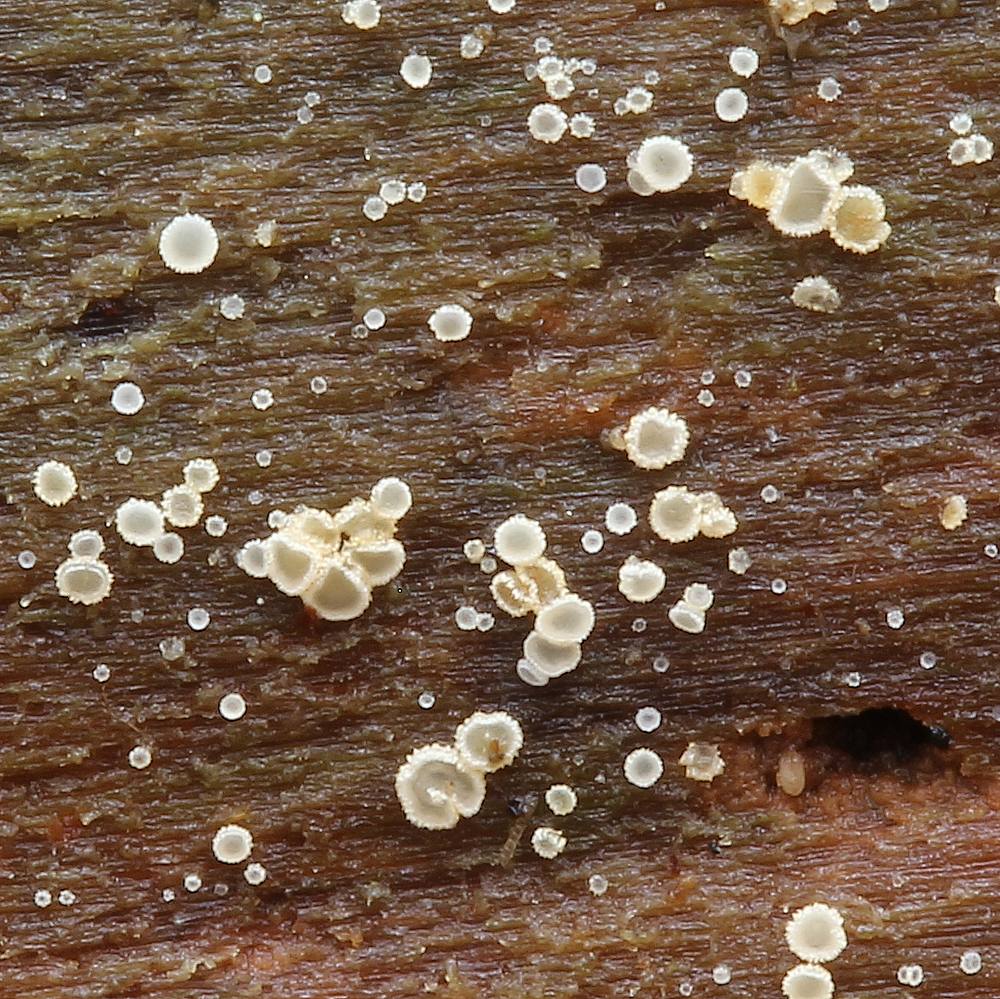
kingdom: Fungi
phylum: Ascomycota
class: Leotiomycetes
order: Helotiales
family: Hyaloscyphaceae
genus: Eupezizella
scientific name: Eupezizella aureliella
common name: almindelig klarskive
